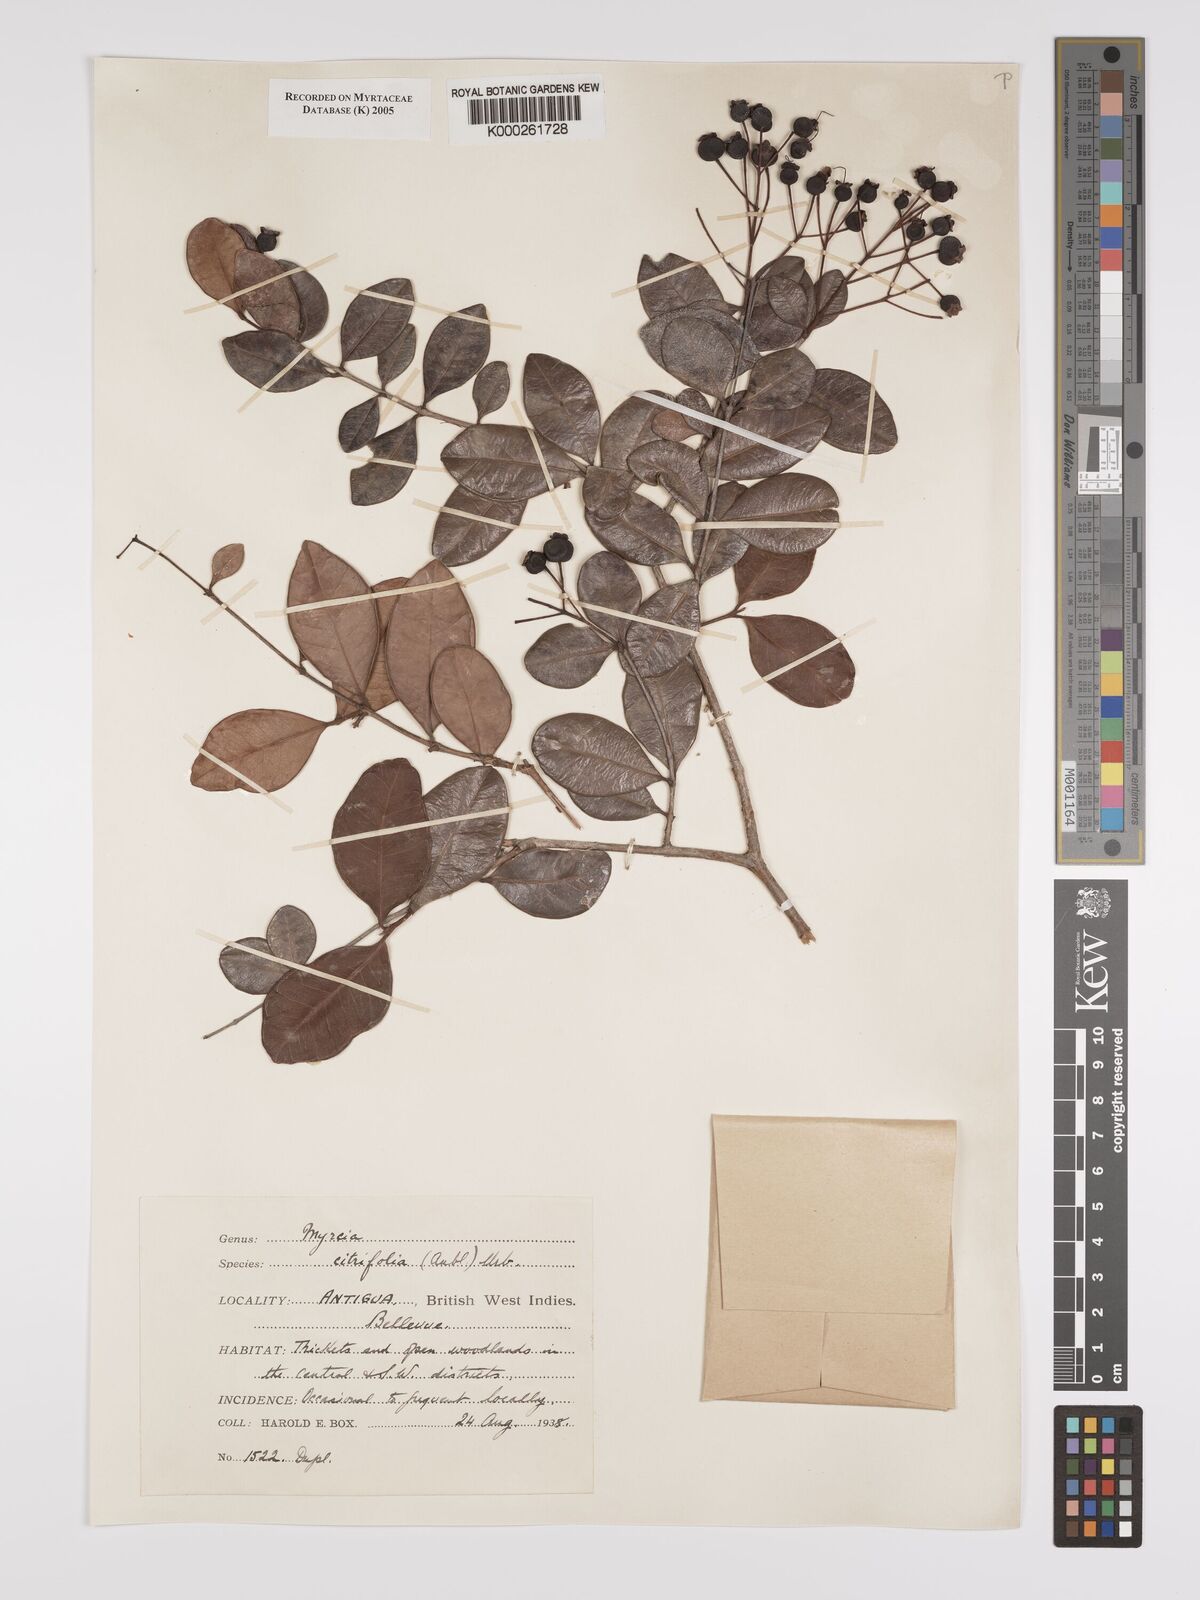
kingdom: Plantae
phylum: Tracheophyta
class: Magnoliopsida
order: Myrtales
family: Myrtaceae
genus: Myrcia
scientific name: Myrcia guianensis
